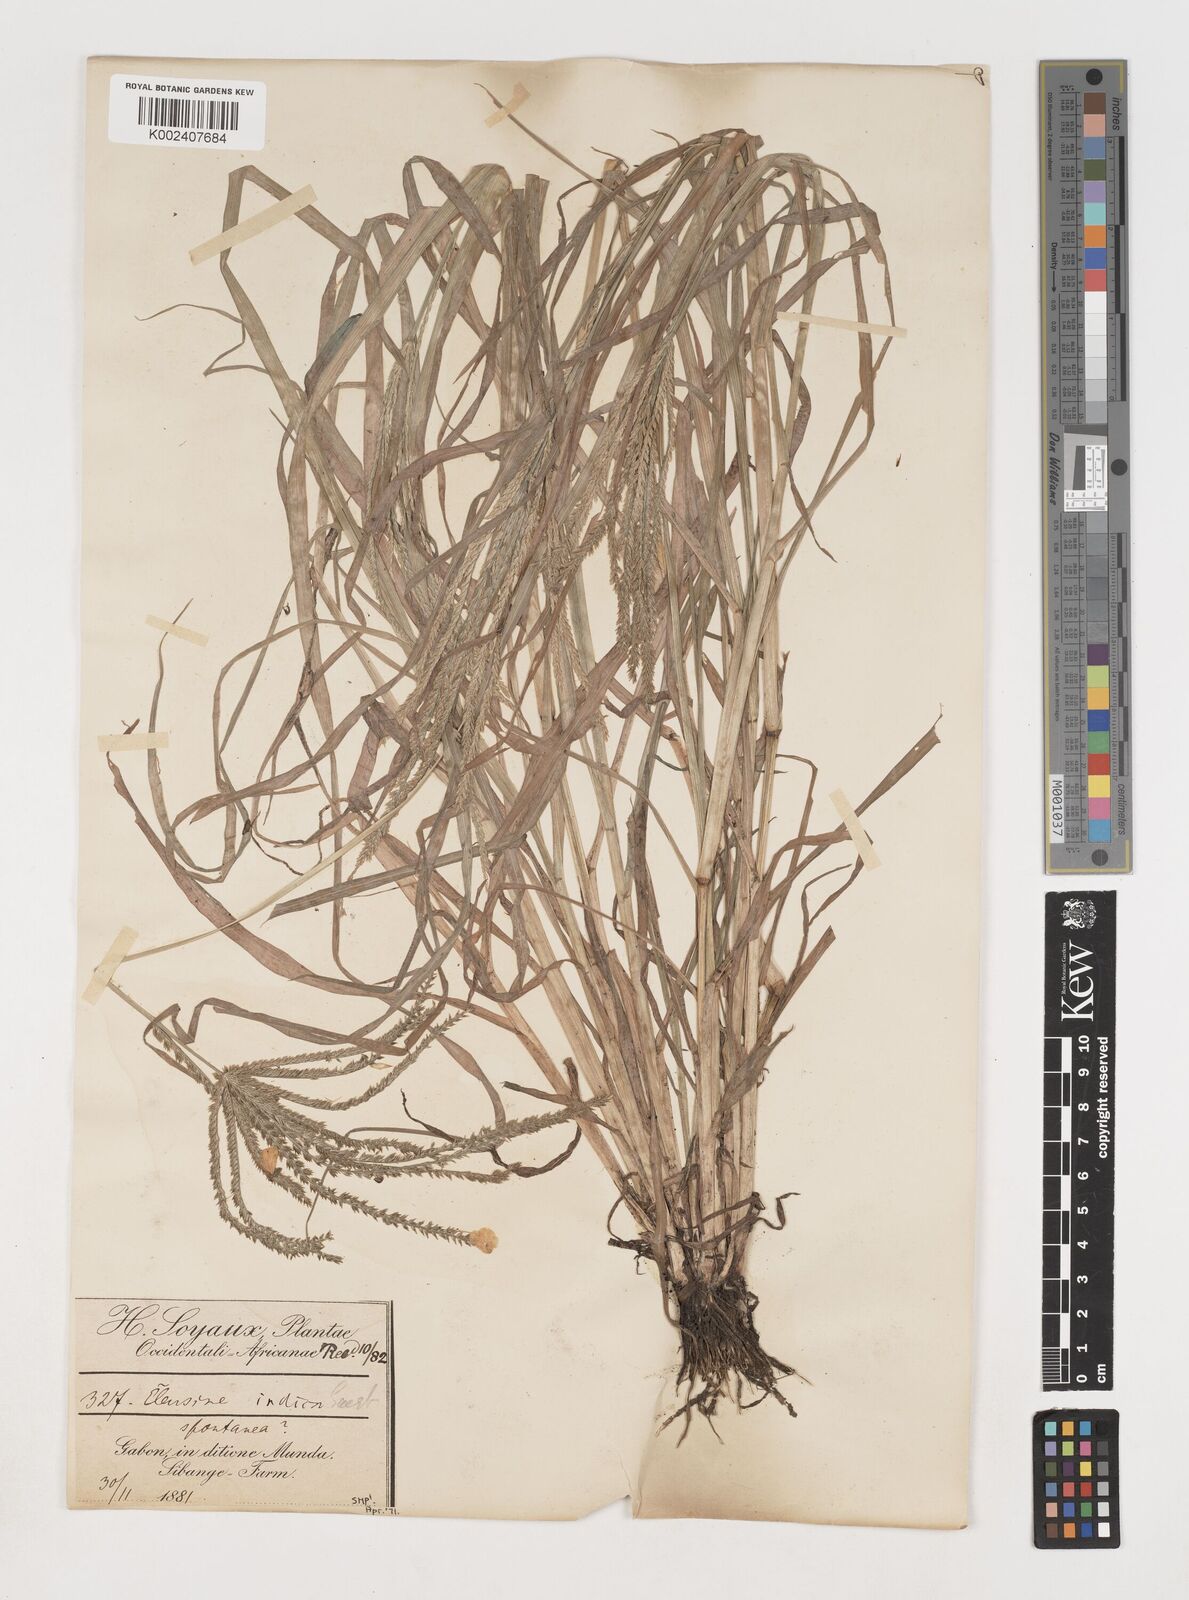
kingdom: Plantae
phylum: Tracheophyta
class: Liliopsida
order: Poales
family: Poaceae
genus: Eleusine
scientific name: Eleusine indica
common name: Yard-grass
